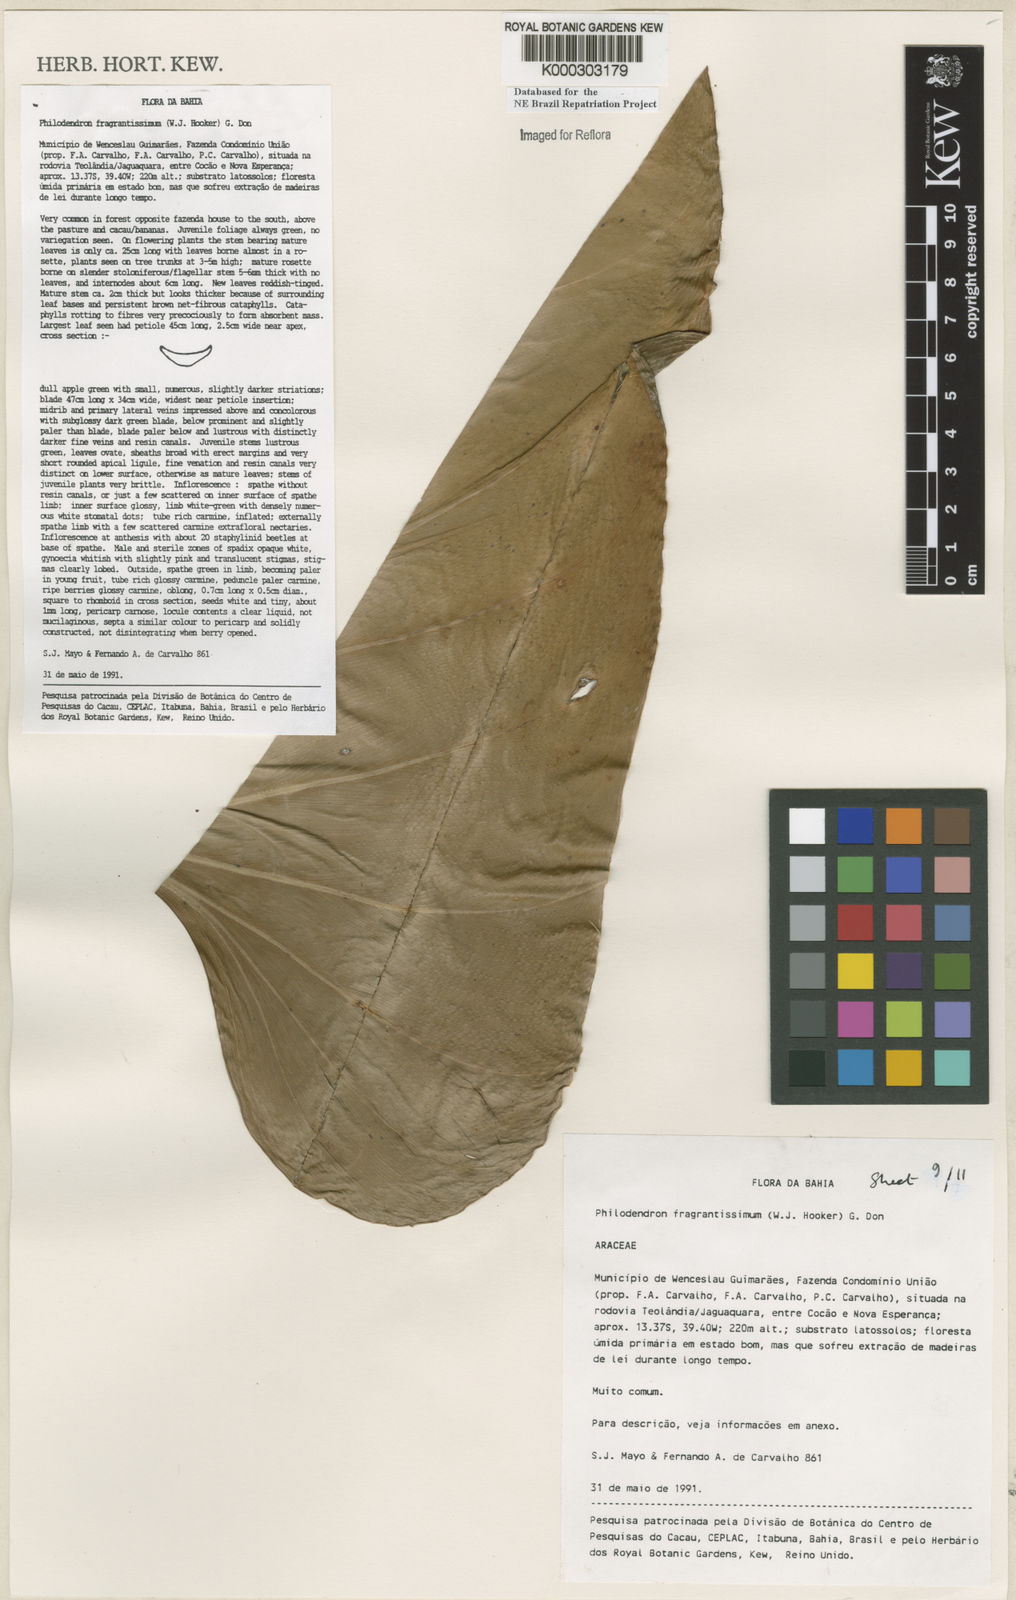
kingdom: Plantae
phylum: Tracheophyta
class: Liliopsida
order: Alismatales
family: Araceae
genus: Philodendron
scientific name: Philodendron fragrantissimum
